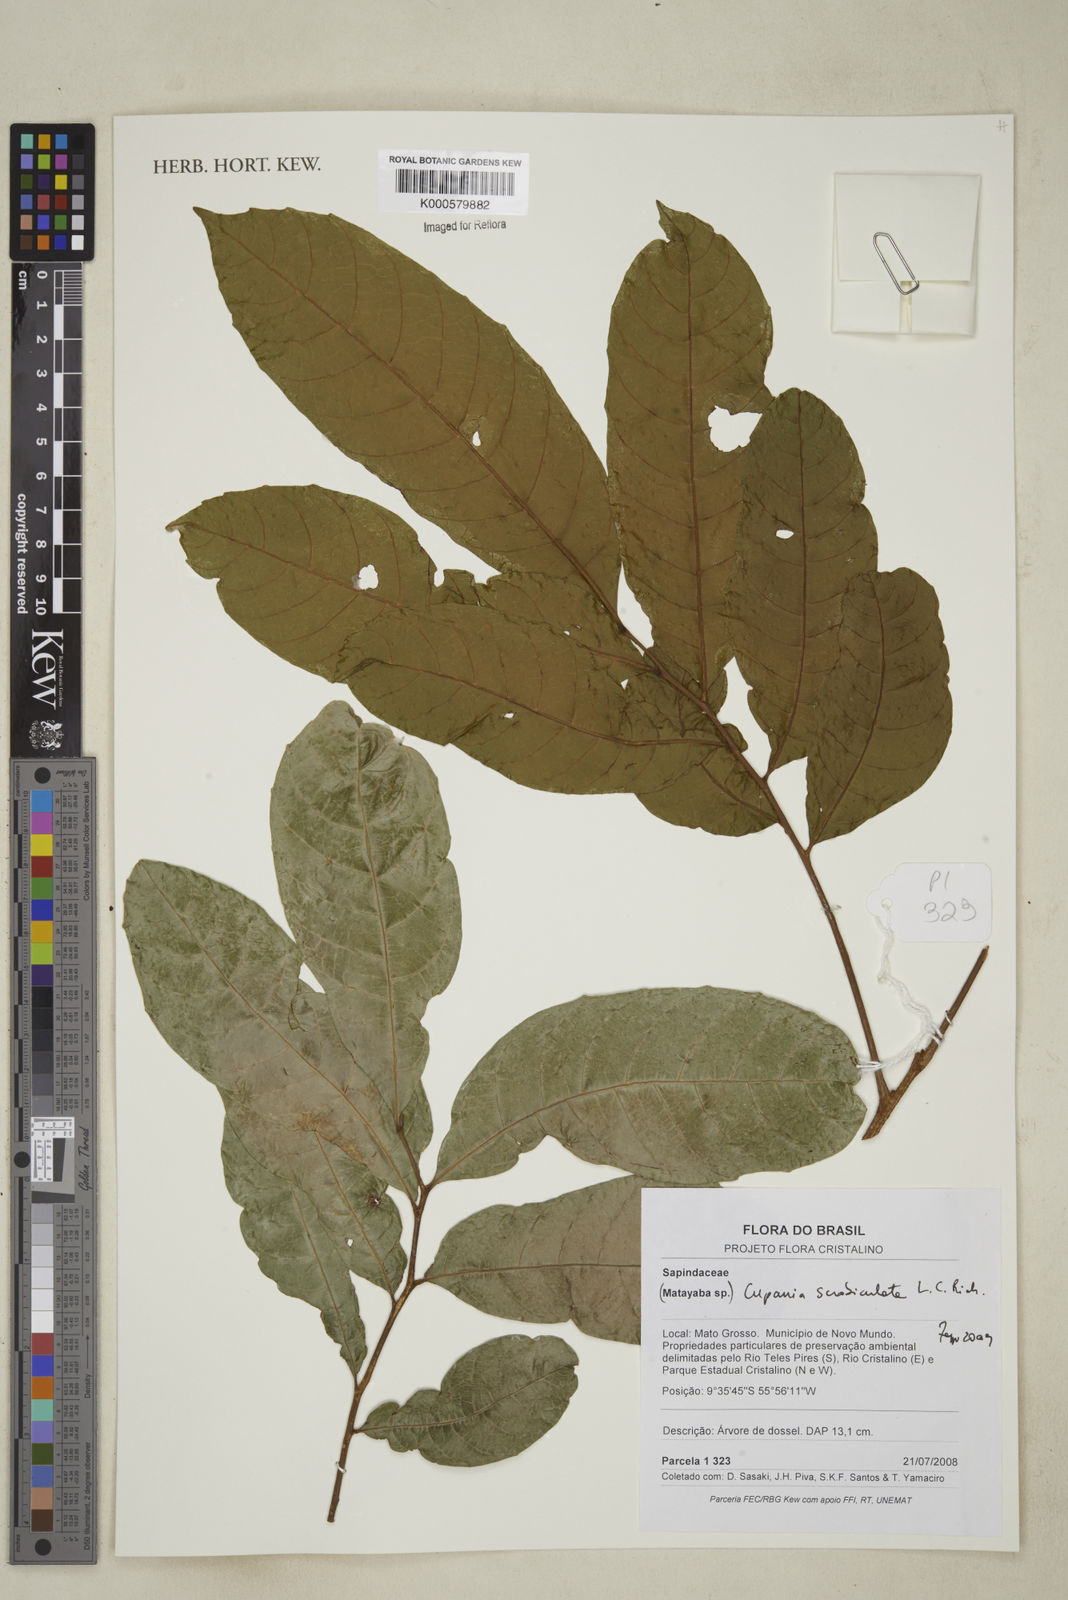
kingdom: Plantae
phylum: Tracheophyta
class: Magnoliopsida
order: Sapindales
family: Sapindaceae
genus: Cupania
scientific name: Cupania scrobiculata
